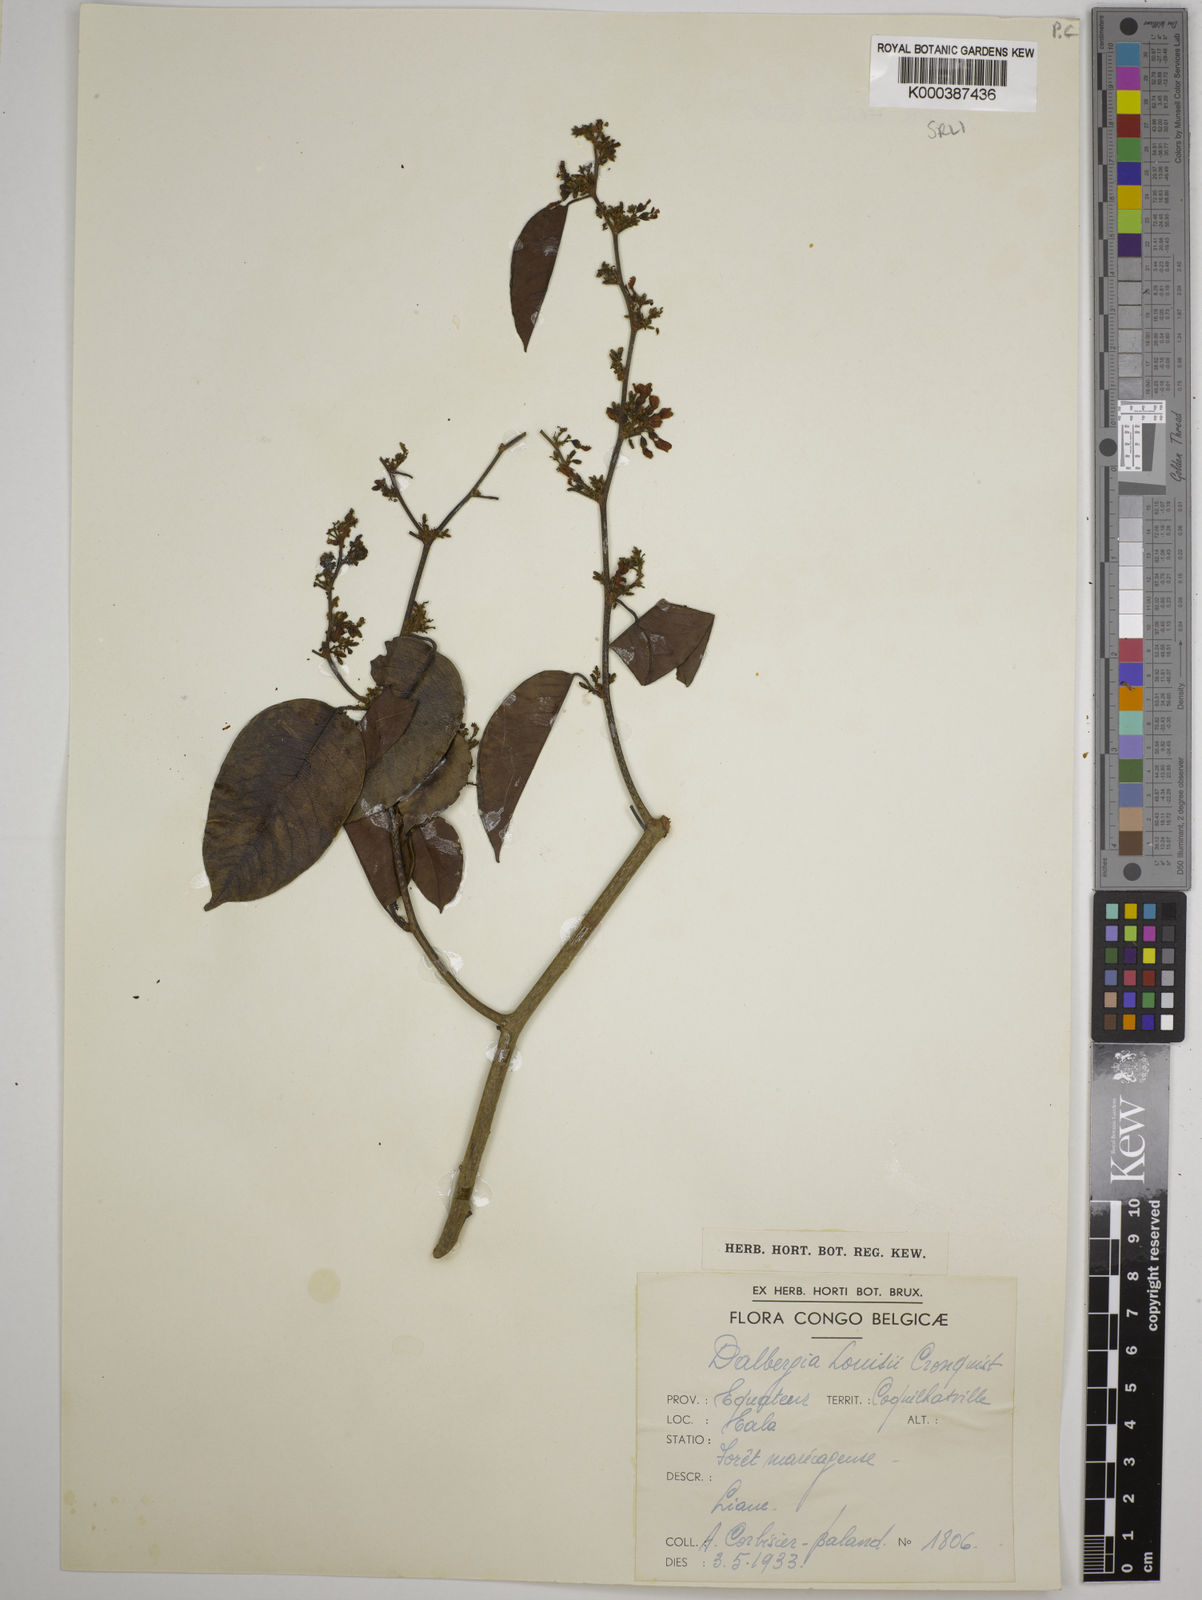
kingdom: Plantae
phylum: Tracheophyta
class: Magnoliopsida
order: Fabales
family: Fabaceae
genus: Dalbergia
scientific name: Dalbergia louisii
